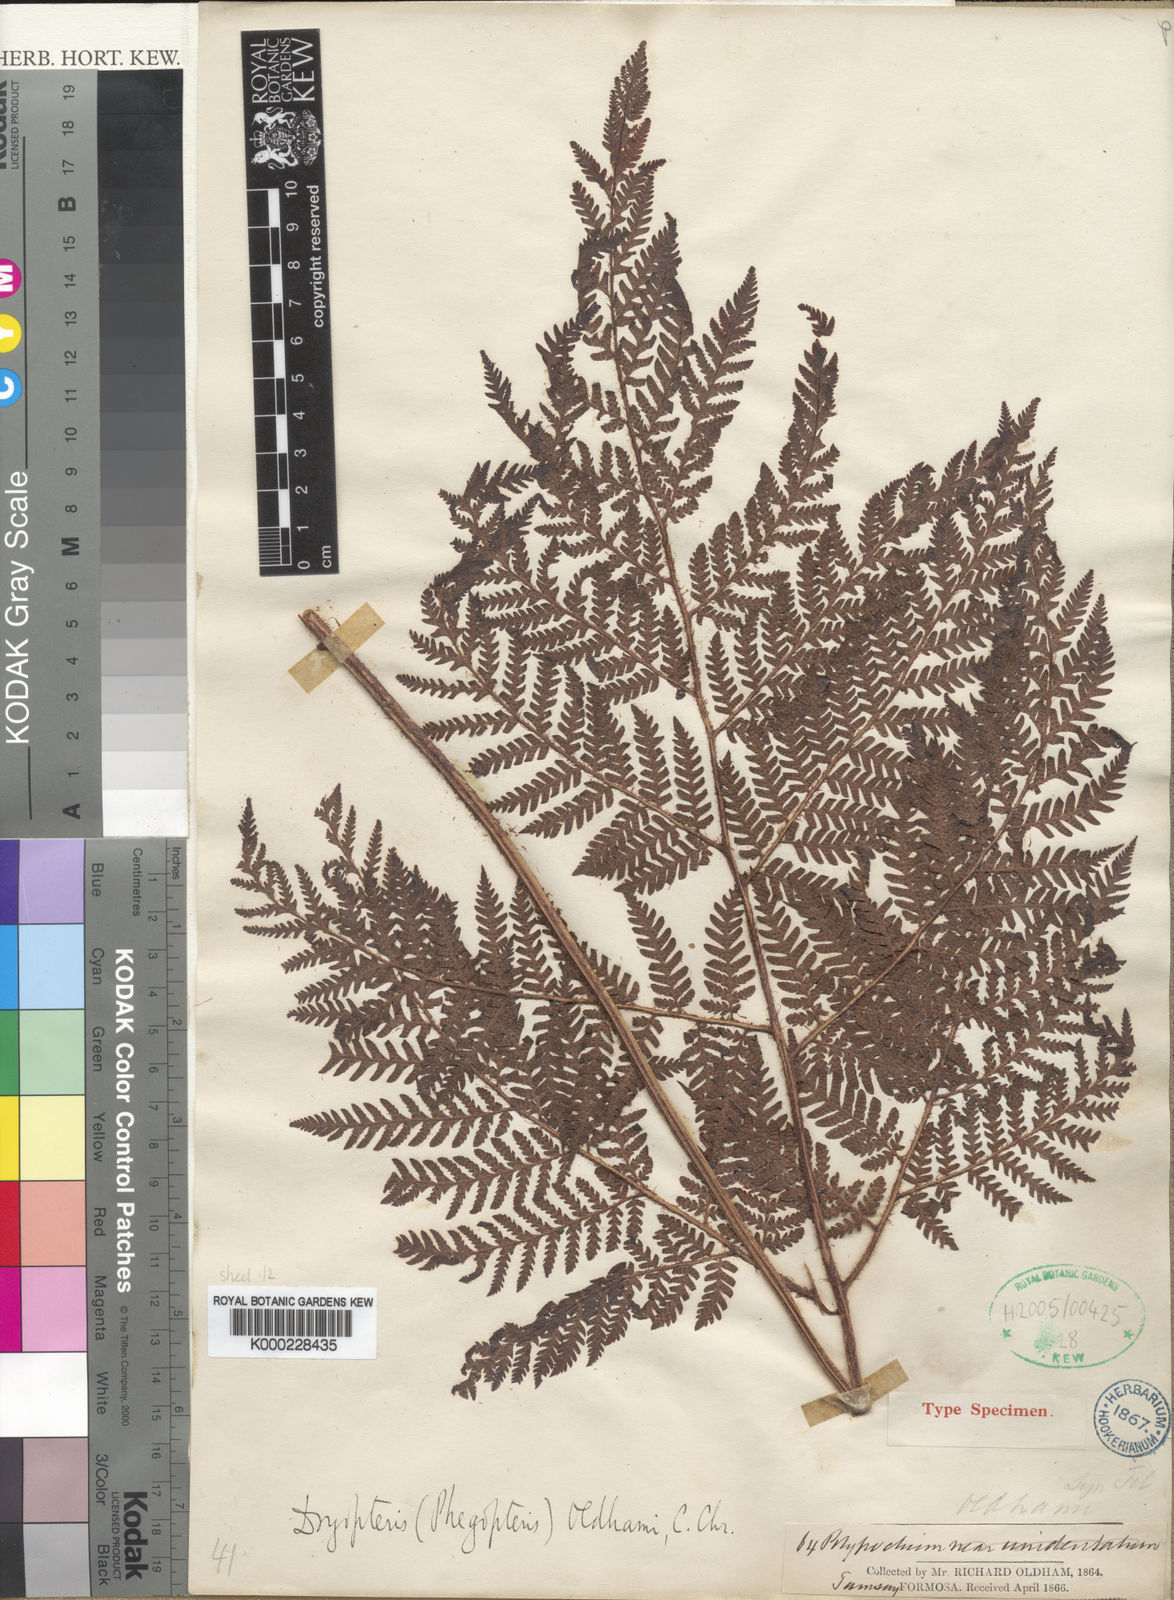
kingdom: Plantae
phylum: Tracheophyta
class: Polypodiopsida
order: Polypodiales
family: Dryopteridaceae
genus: Ctenitis
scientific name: Ctenitis subglandulosa
